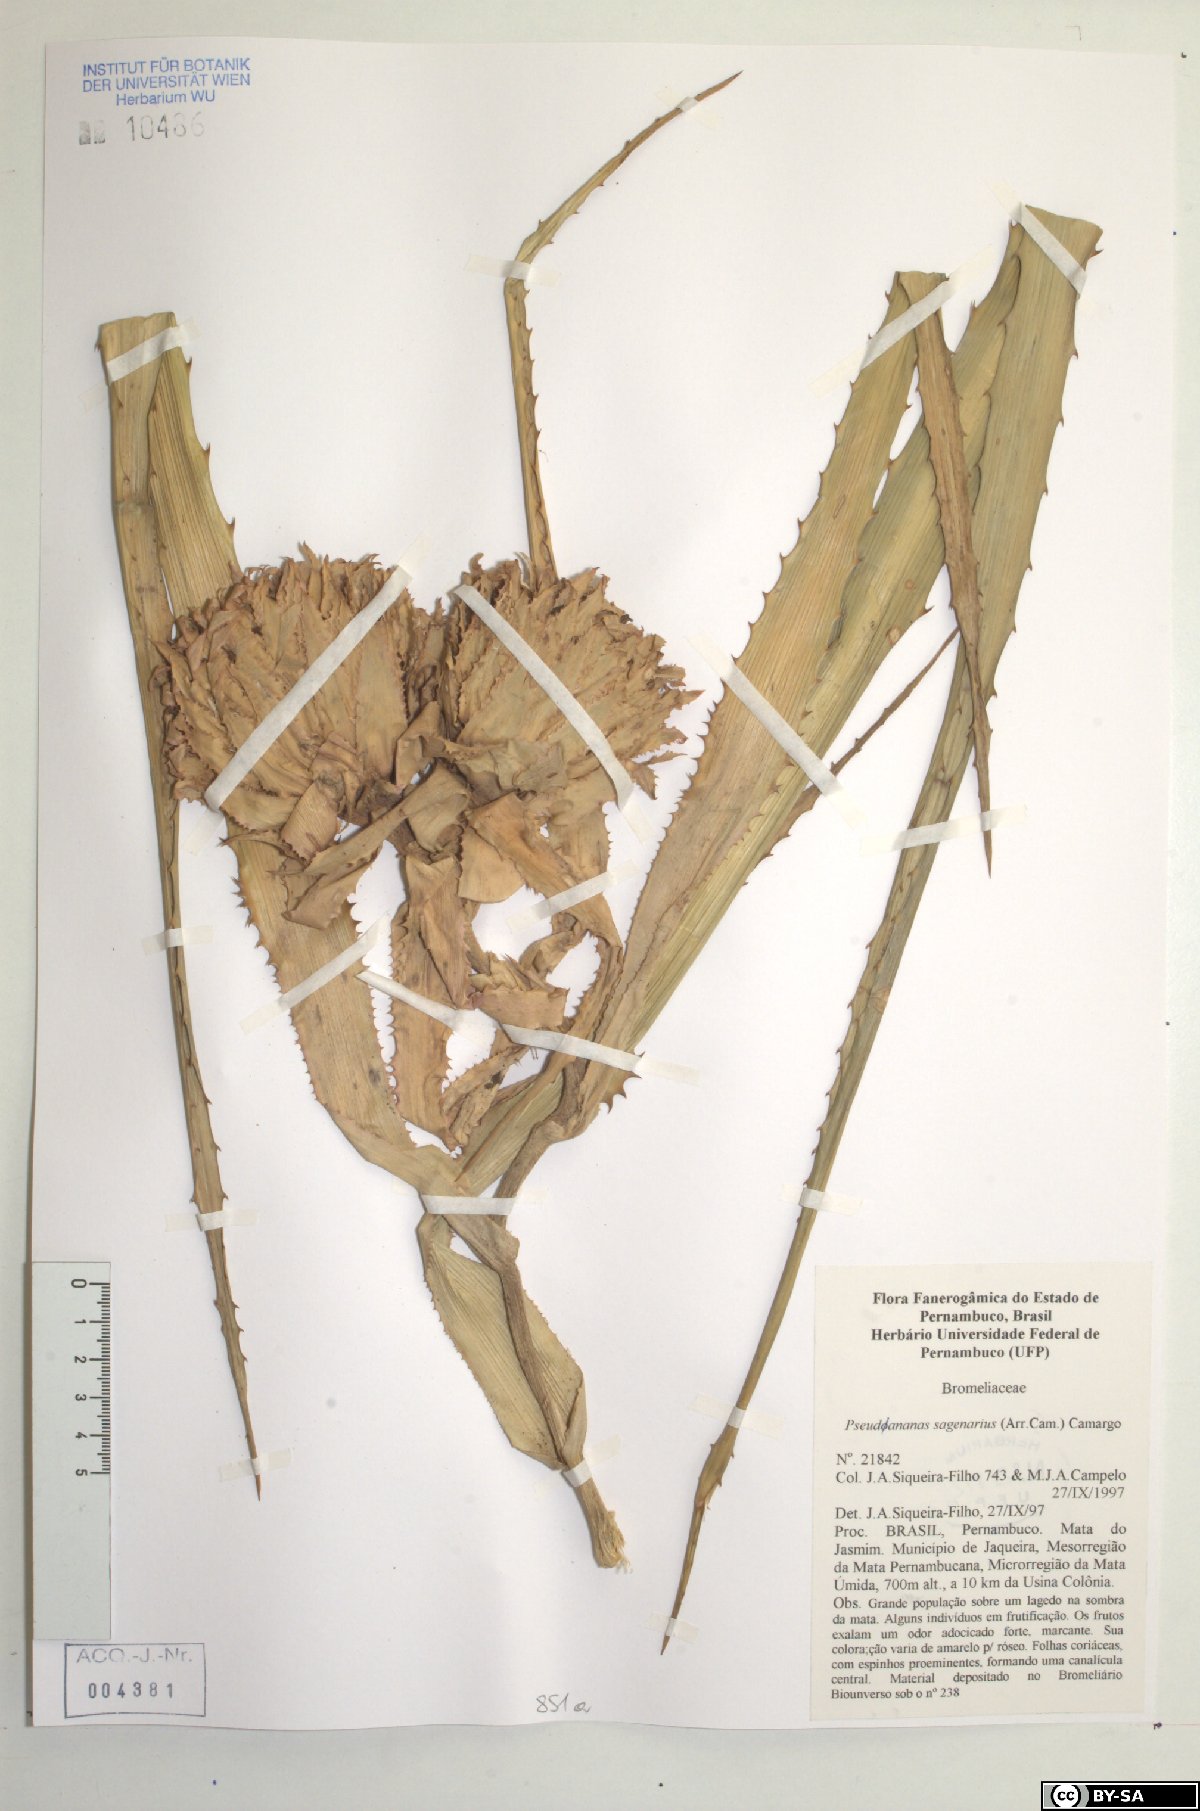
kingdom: Plantae
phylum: Tracheophyta
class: Liliopsida
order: Poales
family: Bromeliaceae
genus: Ananas
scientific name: Ananas comosus
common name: Pineapple
